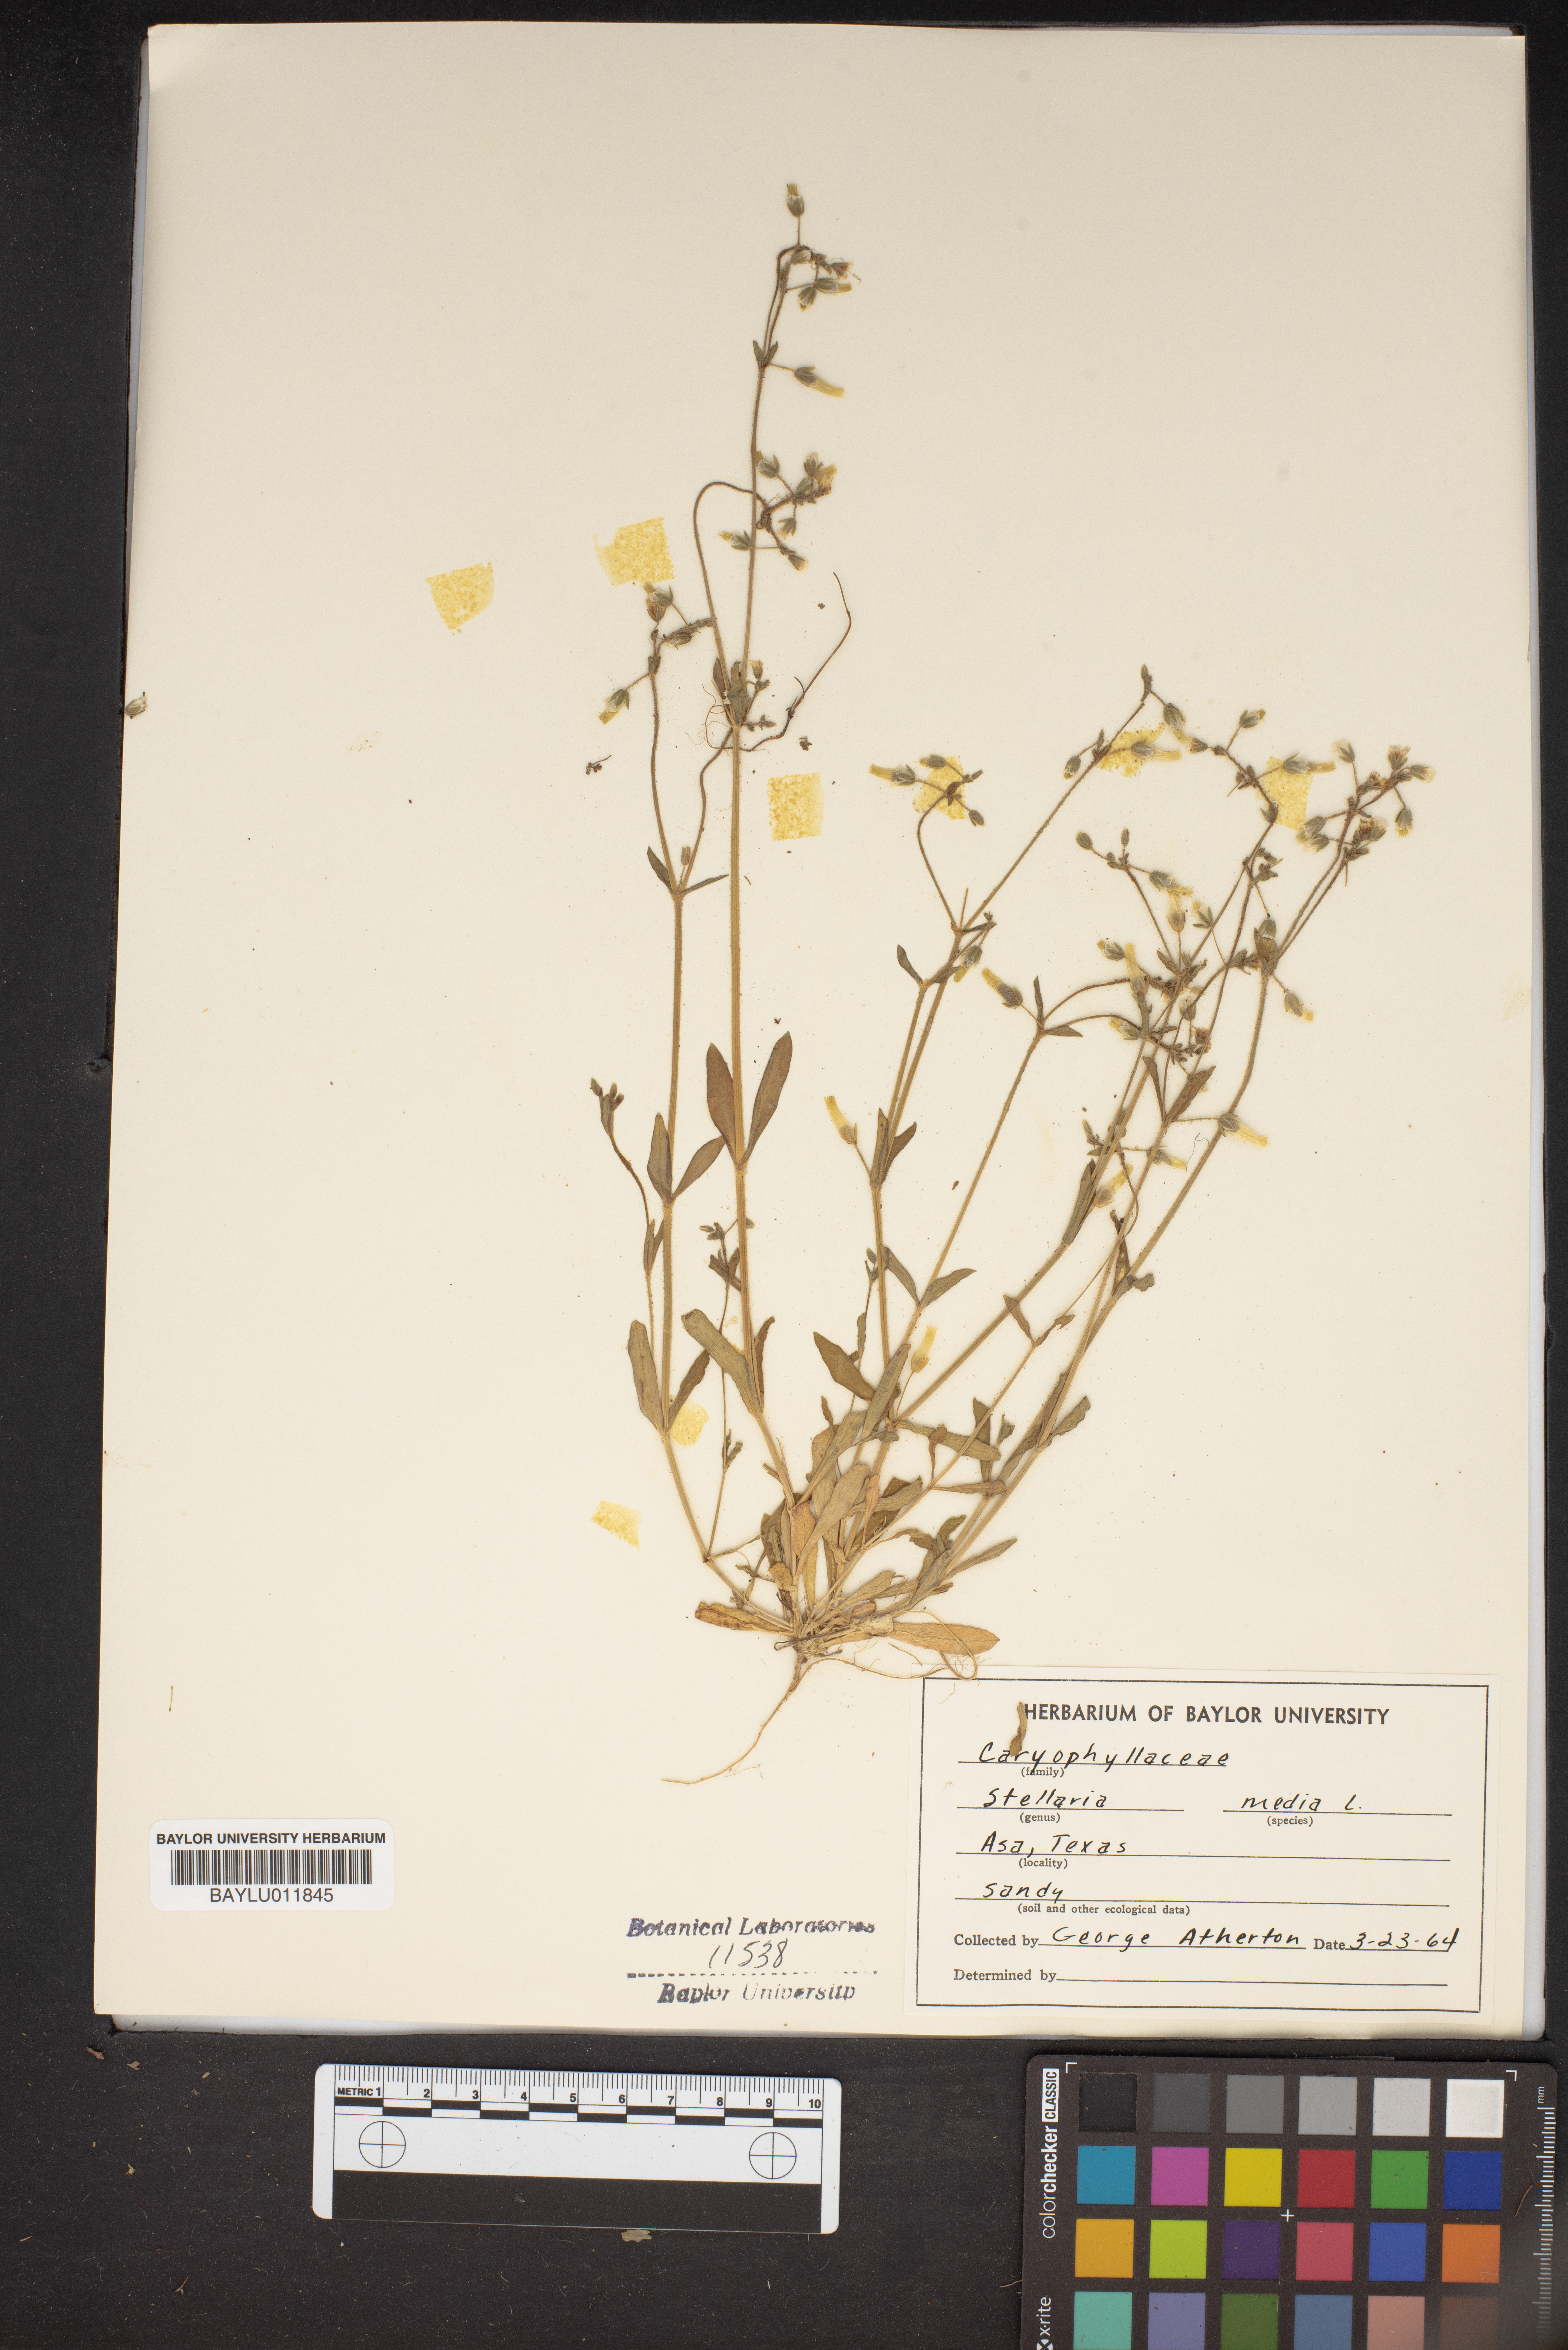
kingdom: Plantae
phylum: Tracheophyta
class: Magnoliopsida
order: Caryophyllales
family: Caryophyllaceae
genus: Stellaria
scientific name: Stellaria media
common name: Common chickweed
